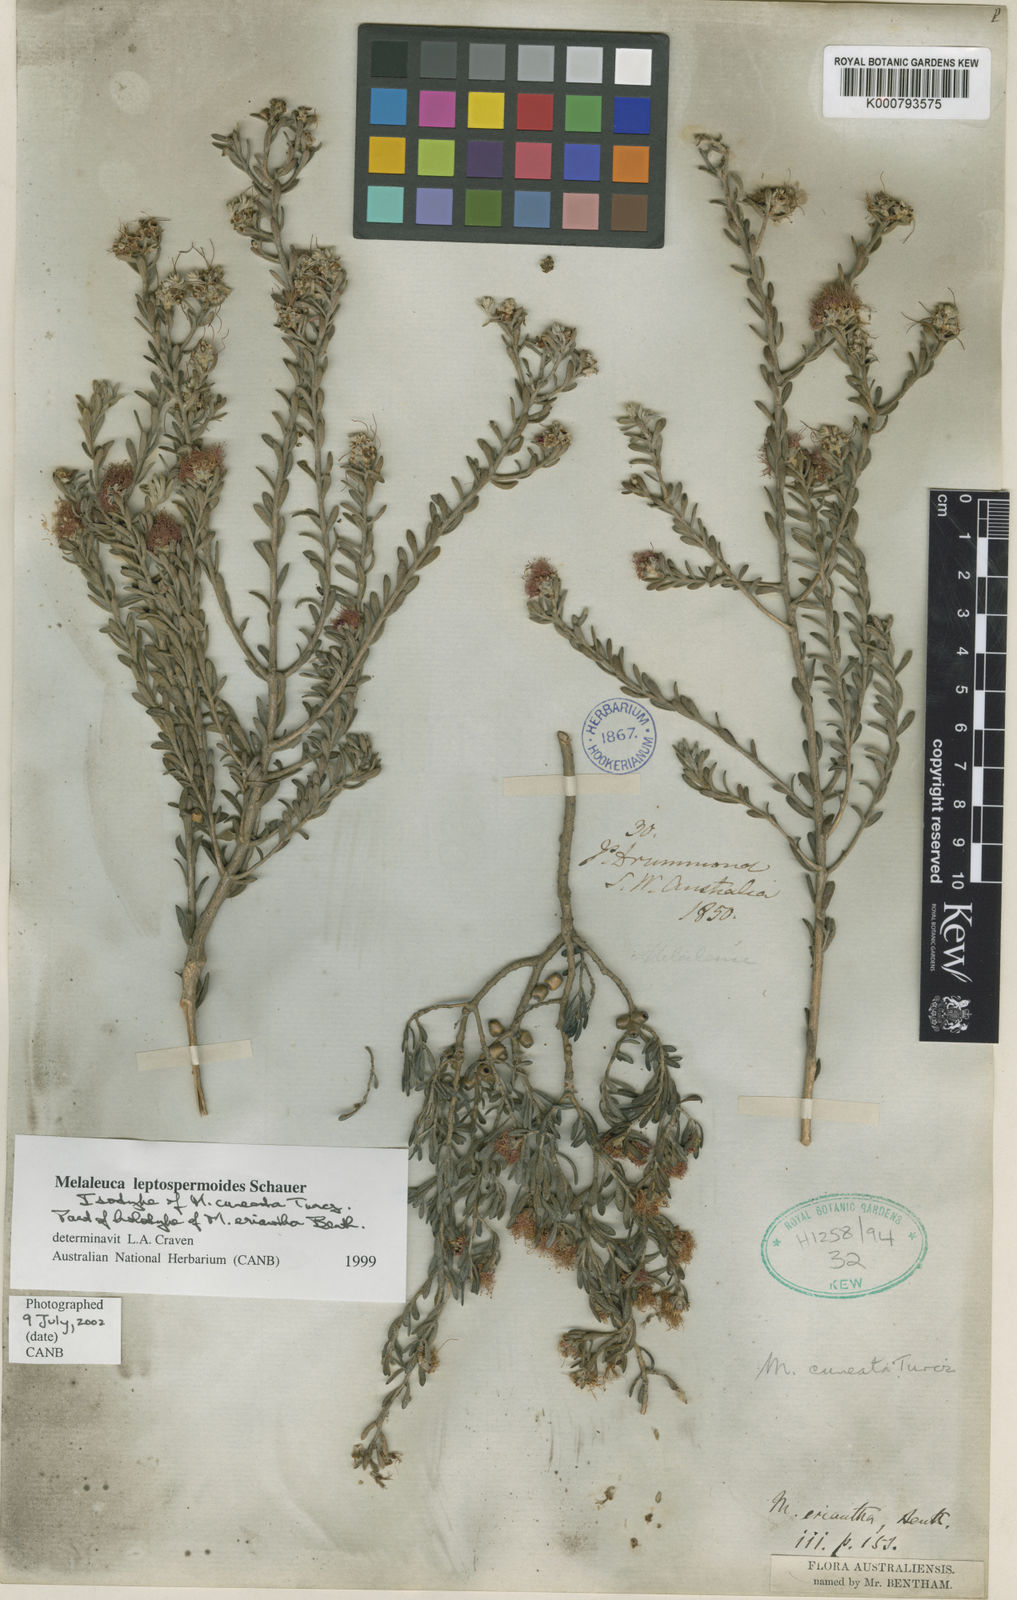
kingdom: Plantae
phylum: Tracheophyta
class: Magnoliopsida
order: Myrtales
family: Myrtaceae
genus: Melaleuca
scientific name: Melaleuca leptospermoides
